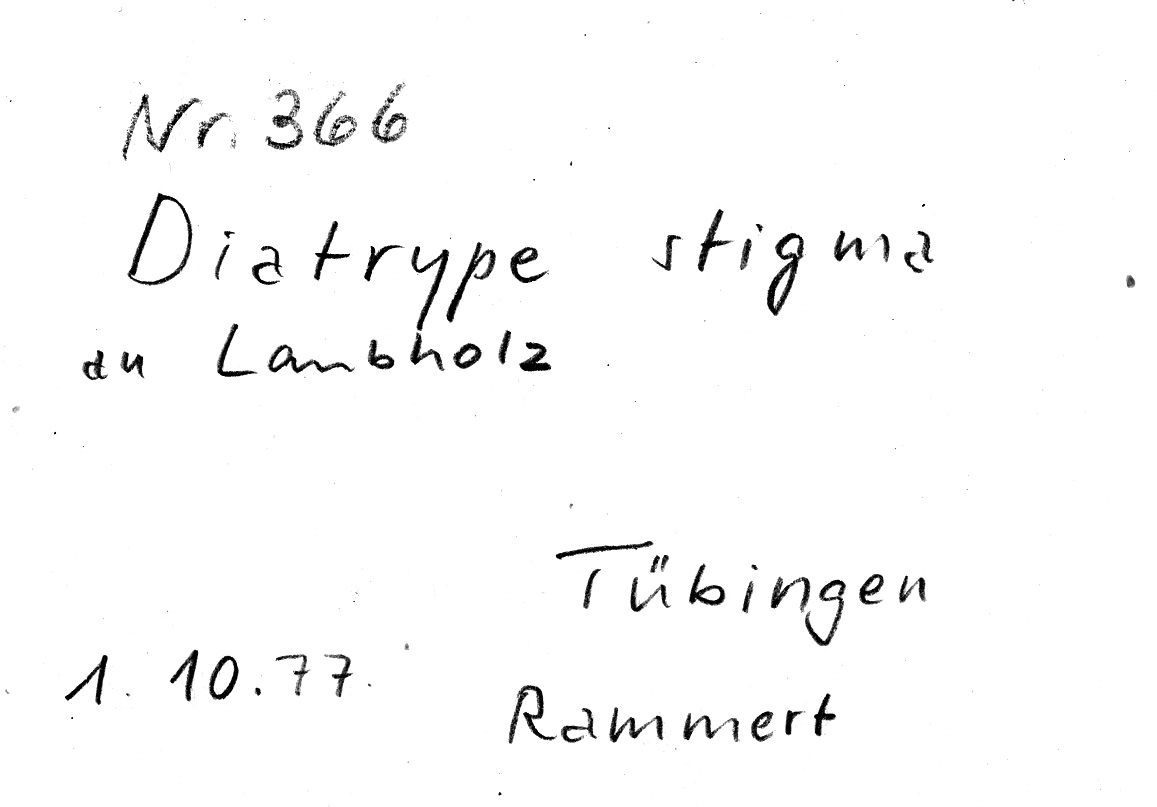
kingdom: Fungi
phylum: Ascomycota
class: Sordariomycetes
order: Xylariales
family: Diatrypaceae
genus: Diatrype
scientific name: Diatrype stigma
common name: Common tarcrust
